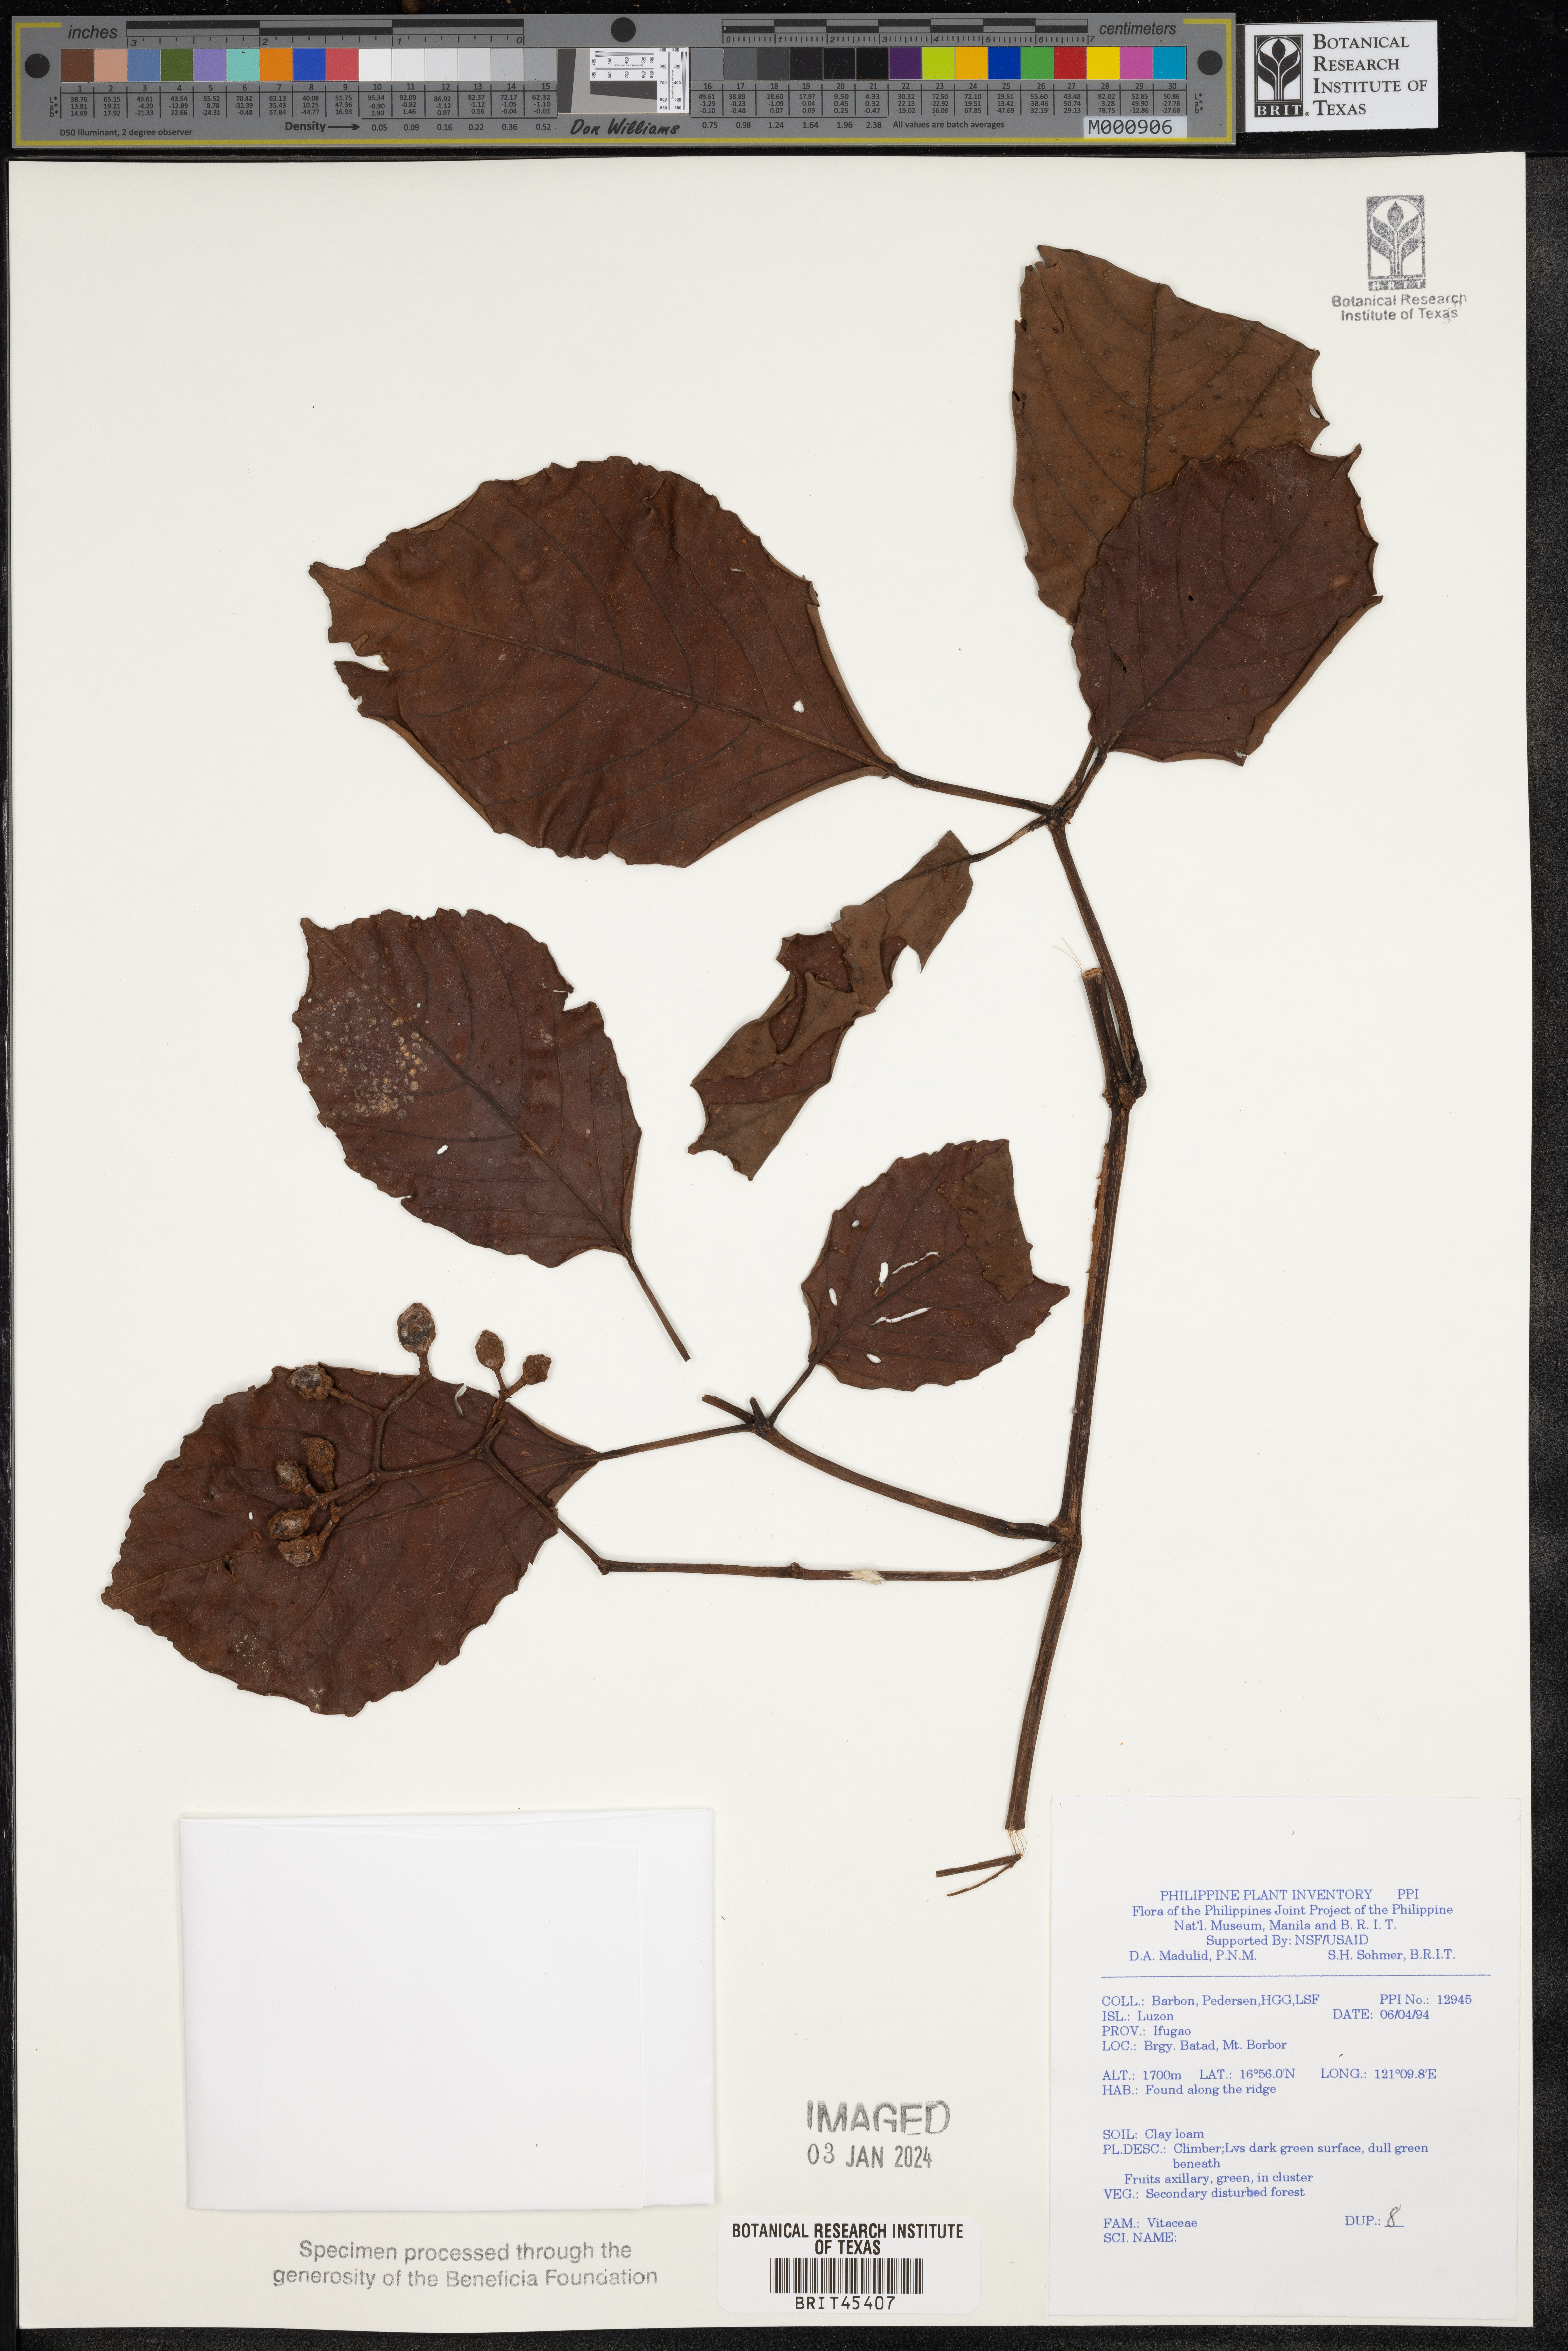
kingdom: Plantae
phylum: Tracheophyta
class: Magnoliopsida
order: Vitales
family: Vitaceae
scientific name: Vitaceae
